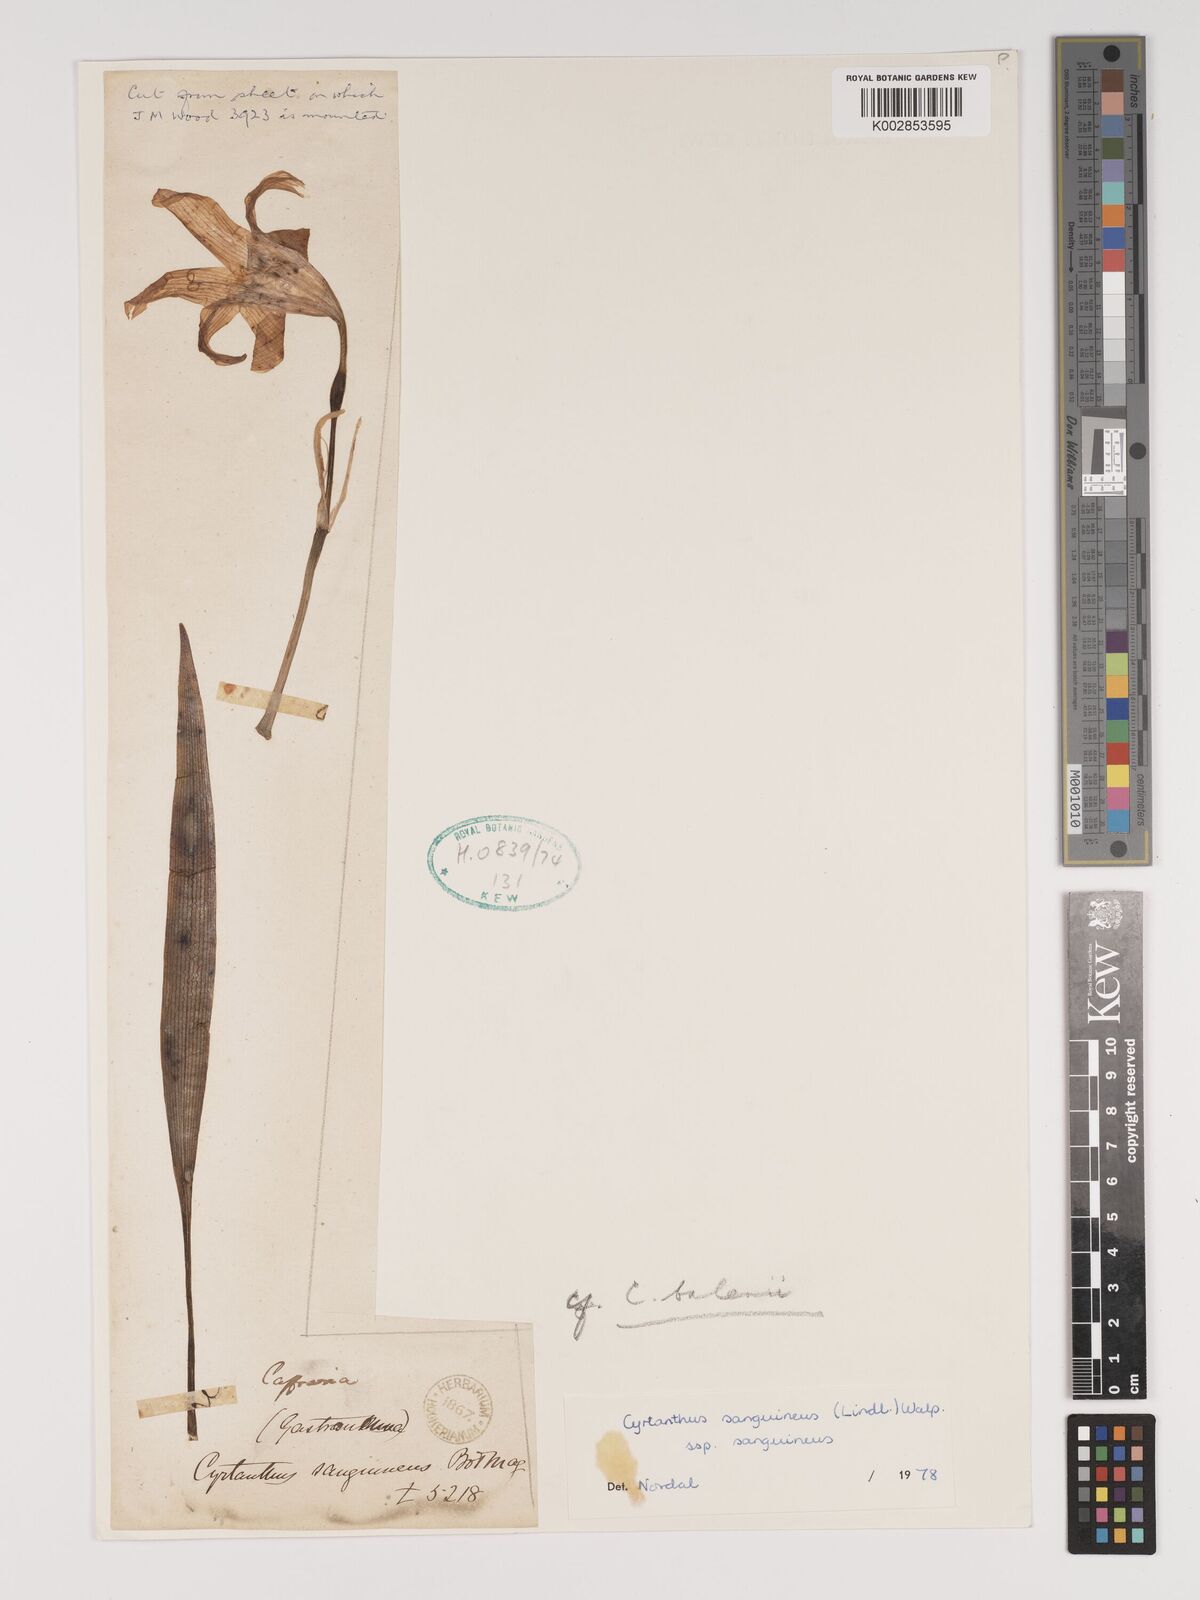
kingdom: Plantae
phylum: Tracheophyta
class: Liliopsida
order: Asparagales
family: Amaryllidaceae
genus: Cyrtanthus
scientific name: Cyrtanthus sanguineus
